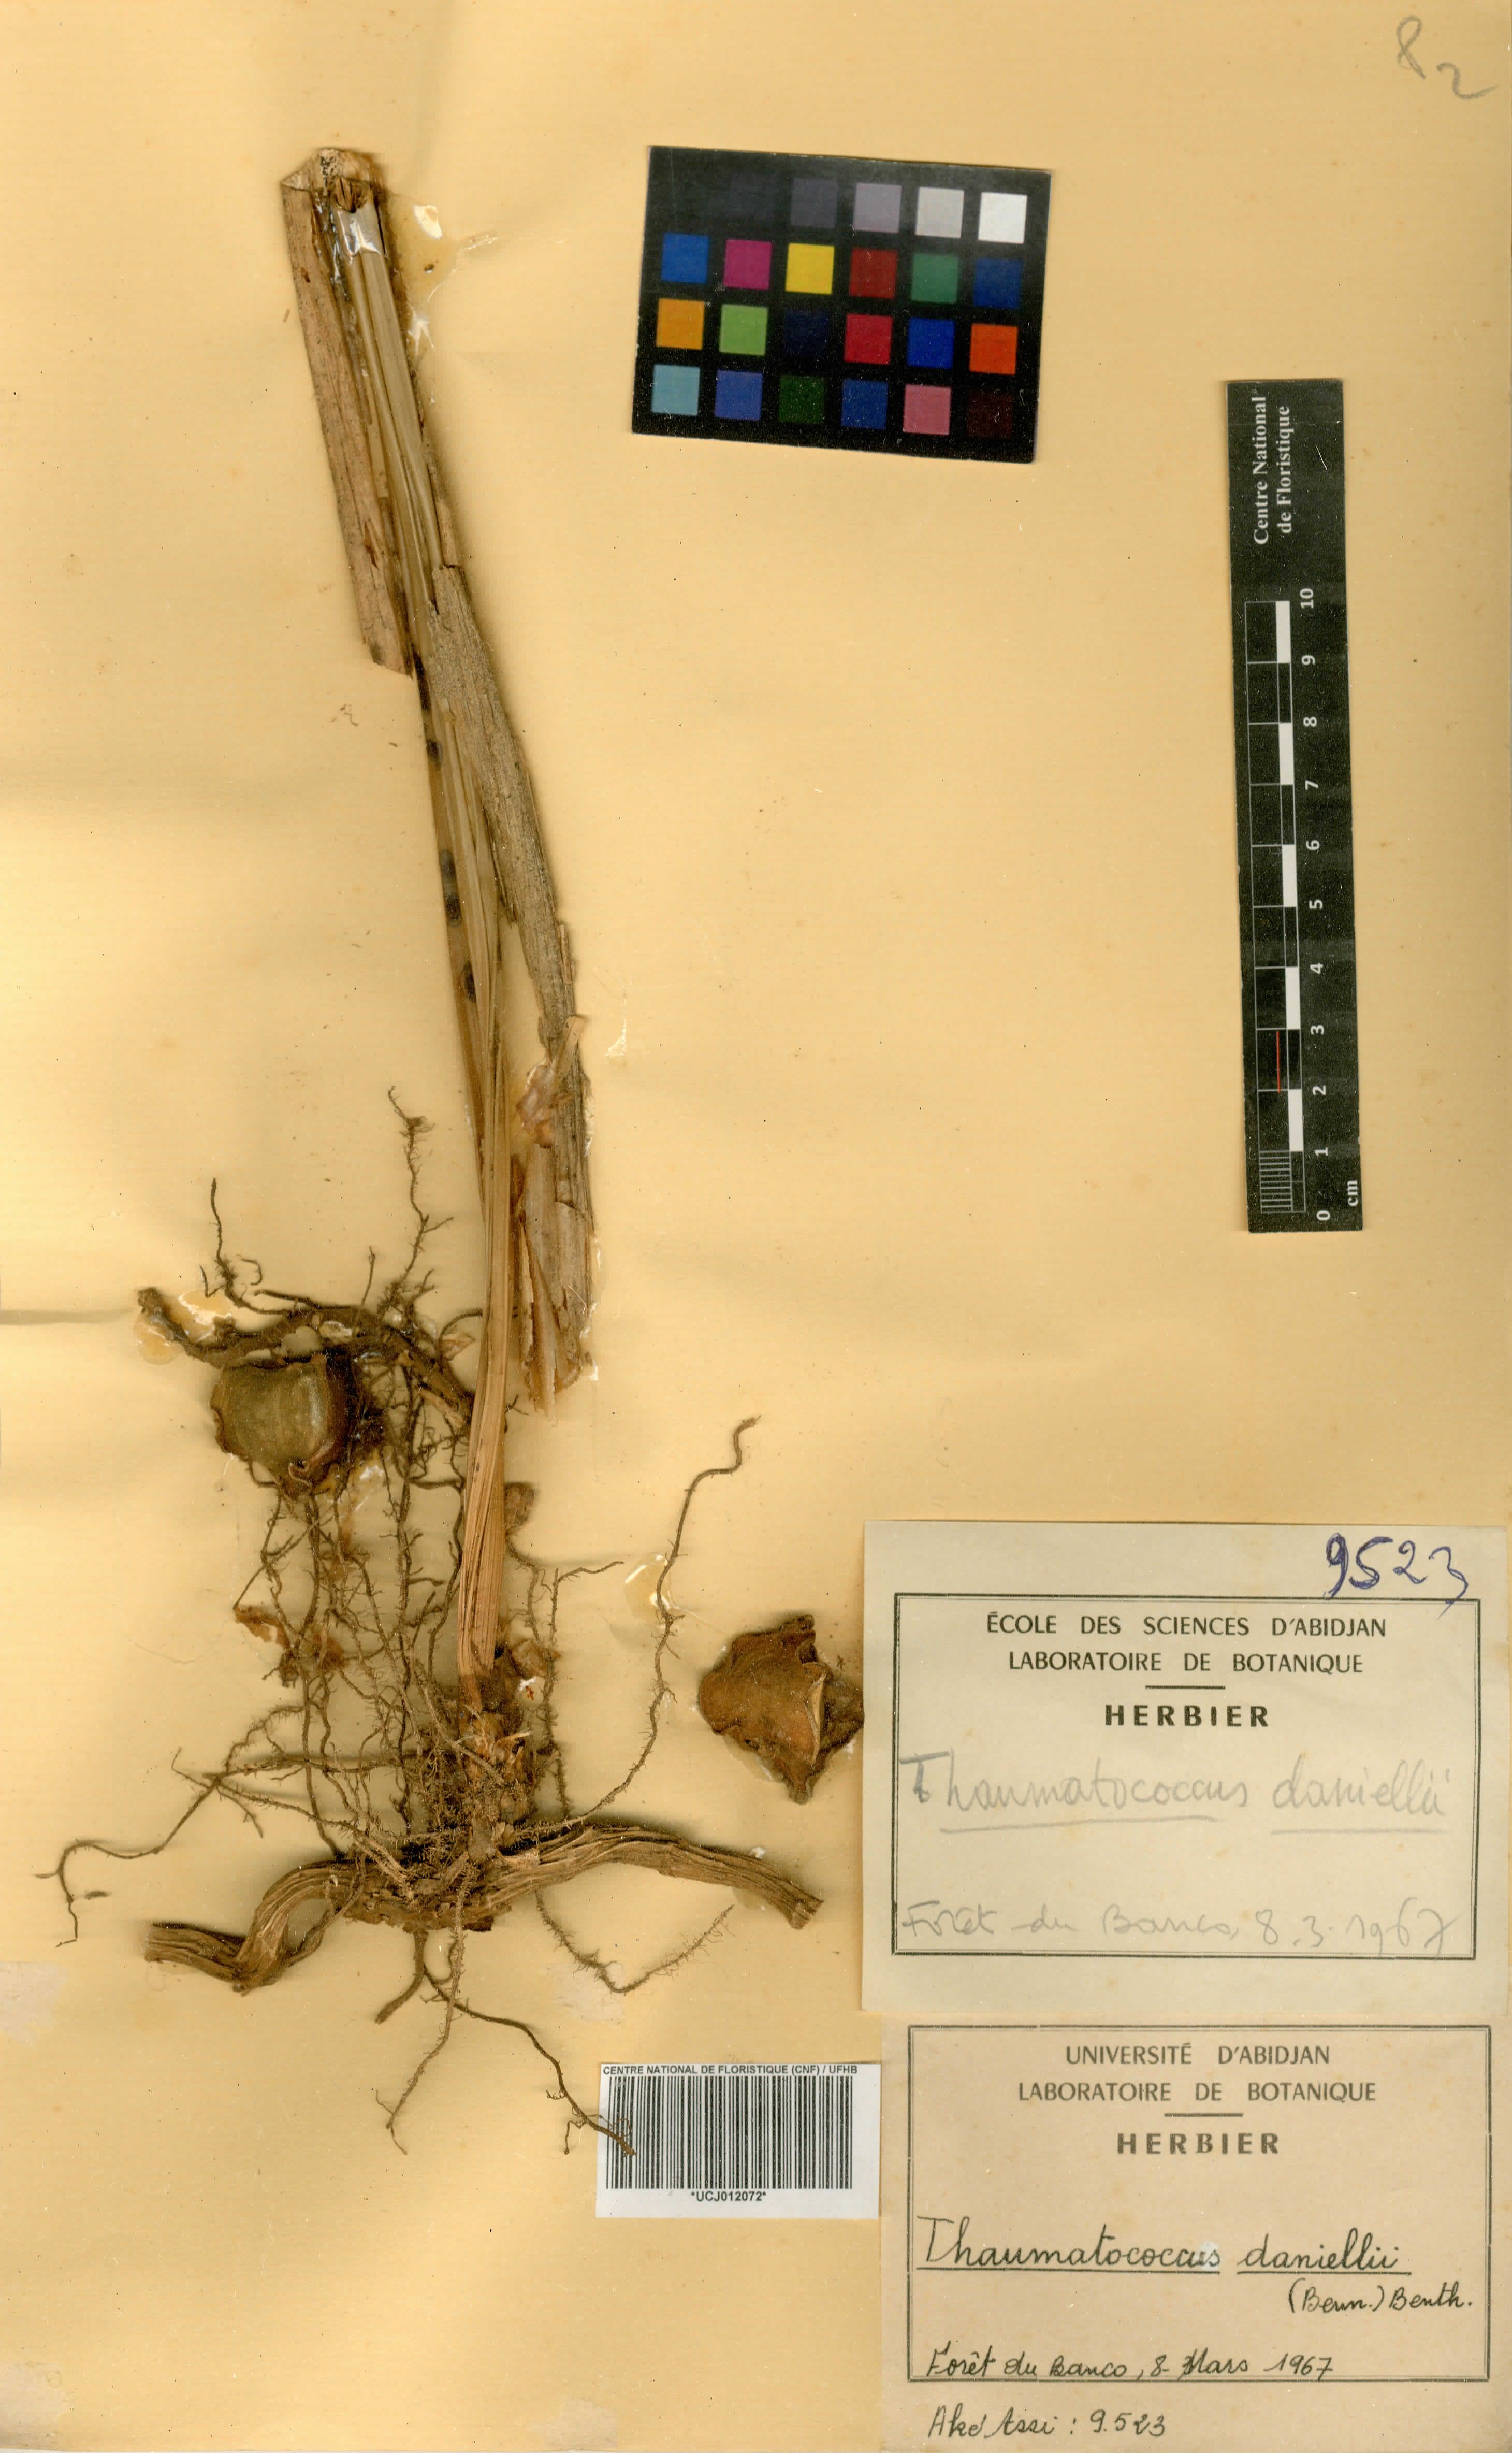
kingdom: Plantae
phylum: Tracheophyta
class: Liliopsida
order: Zingiberales
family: Marantaceae
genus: Thaumatococcus
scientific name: Thaumatococcus daniellii
